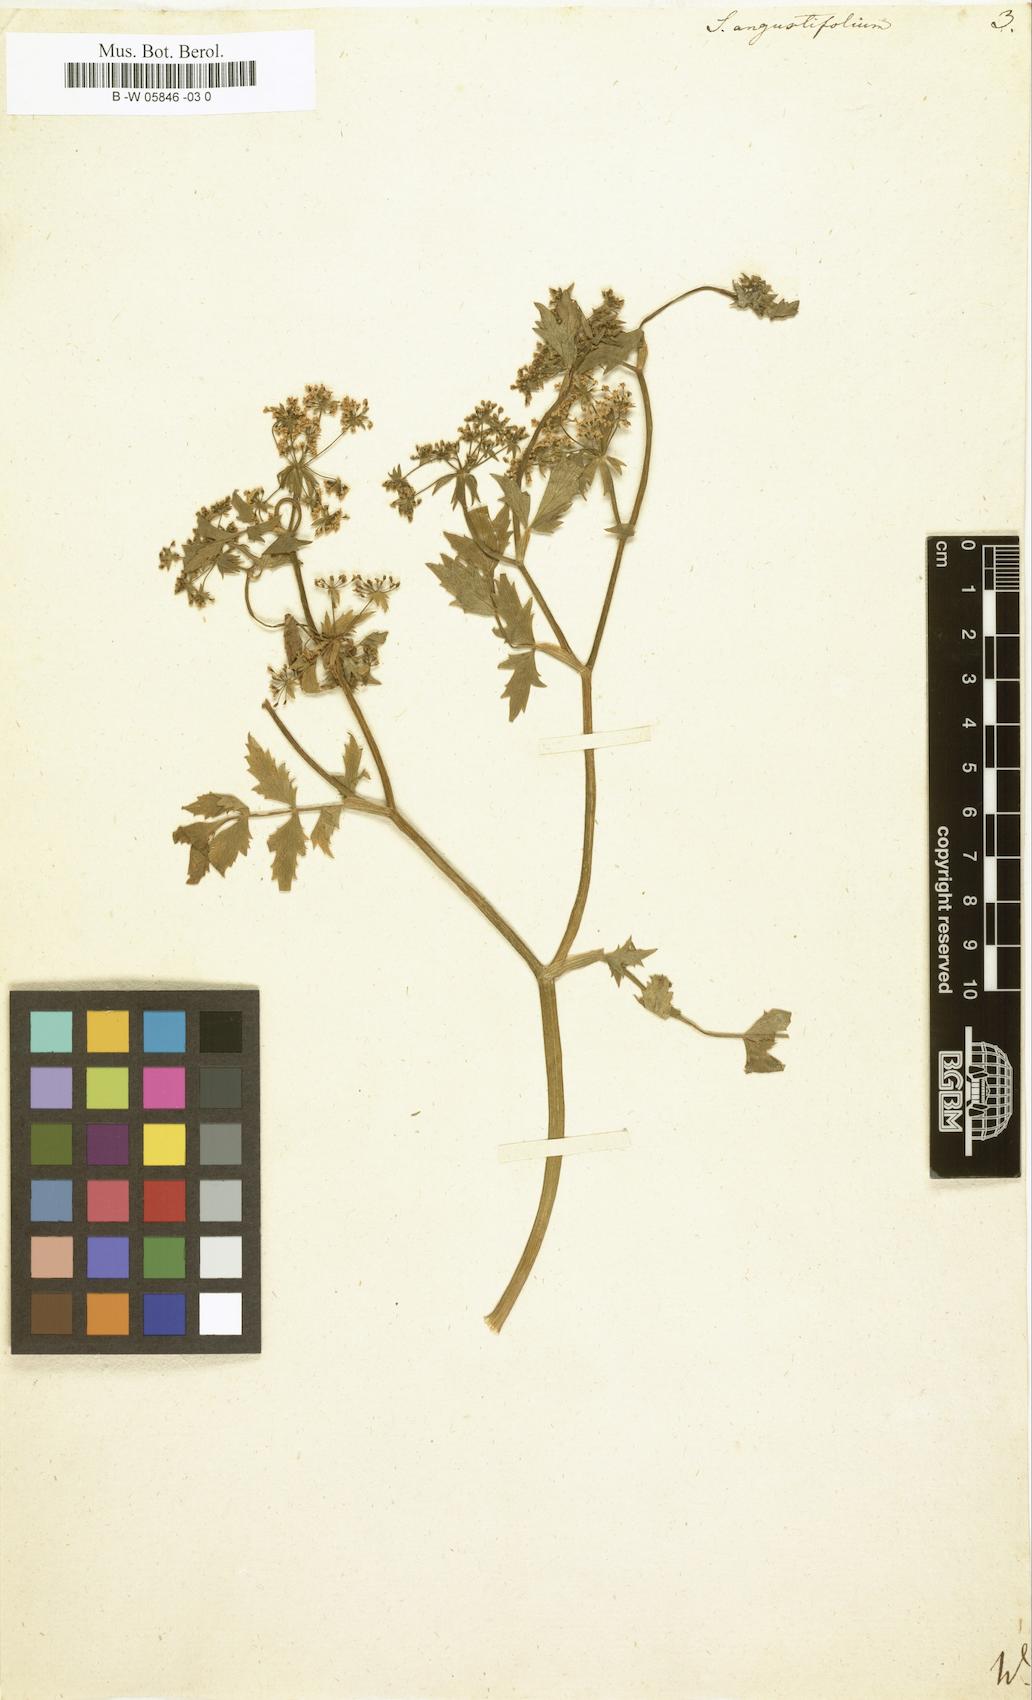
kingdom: Plantae
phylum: Tracheophyta
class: Magnoliopsida
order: Apiales
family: Apiaceae
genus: Berula
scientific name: Berula erecta
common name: Lesser water-parsnip
